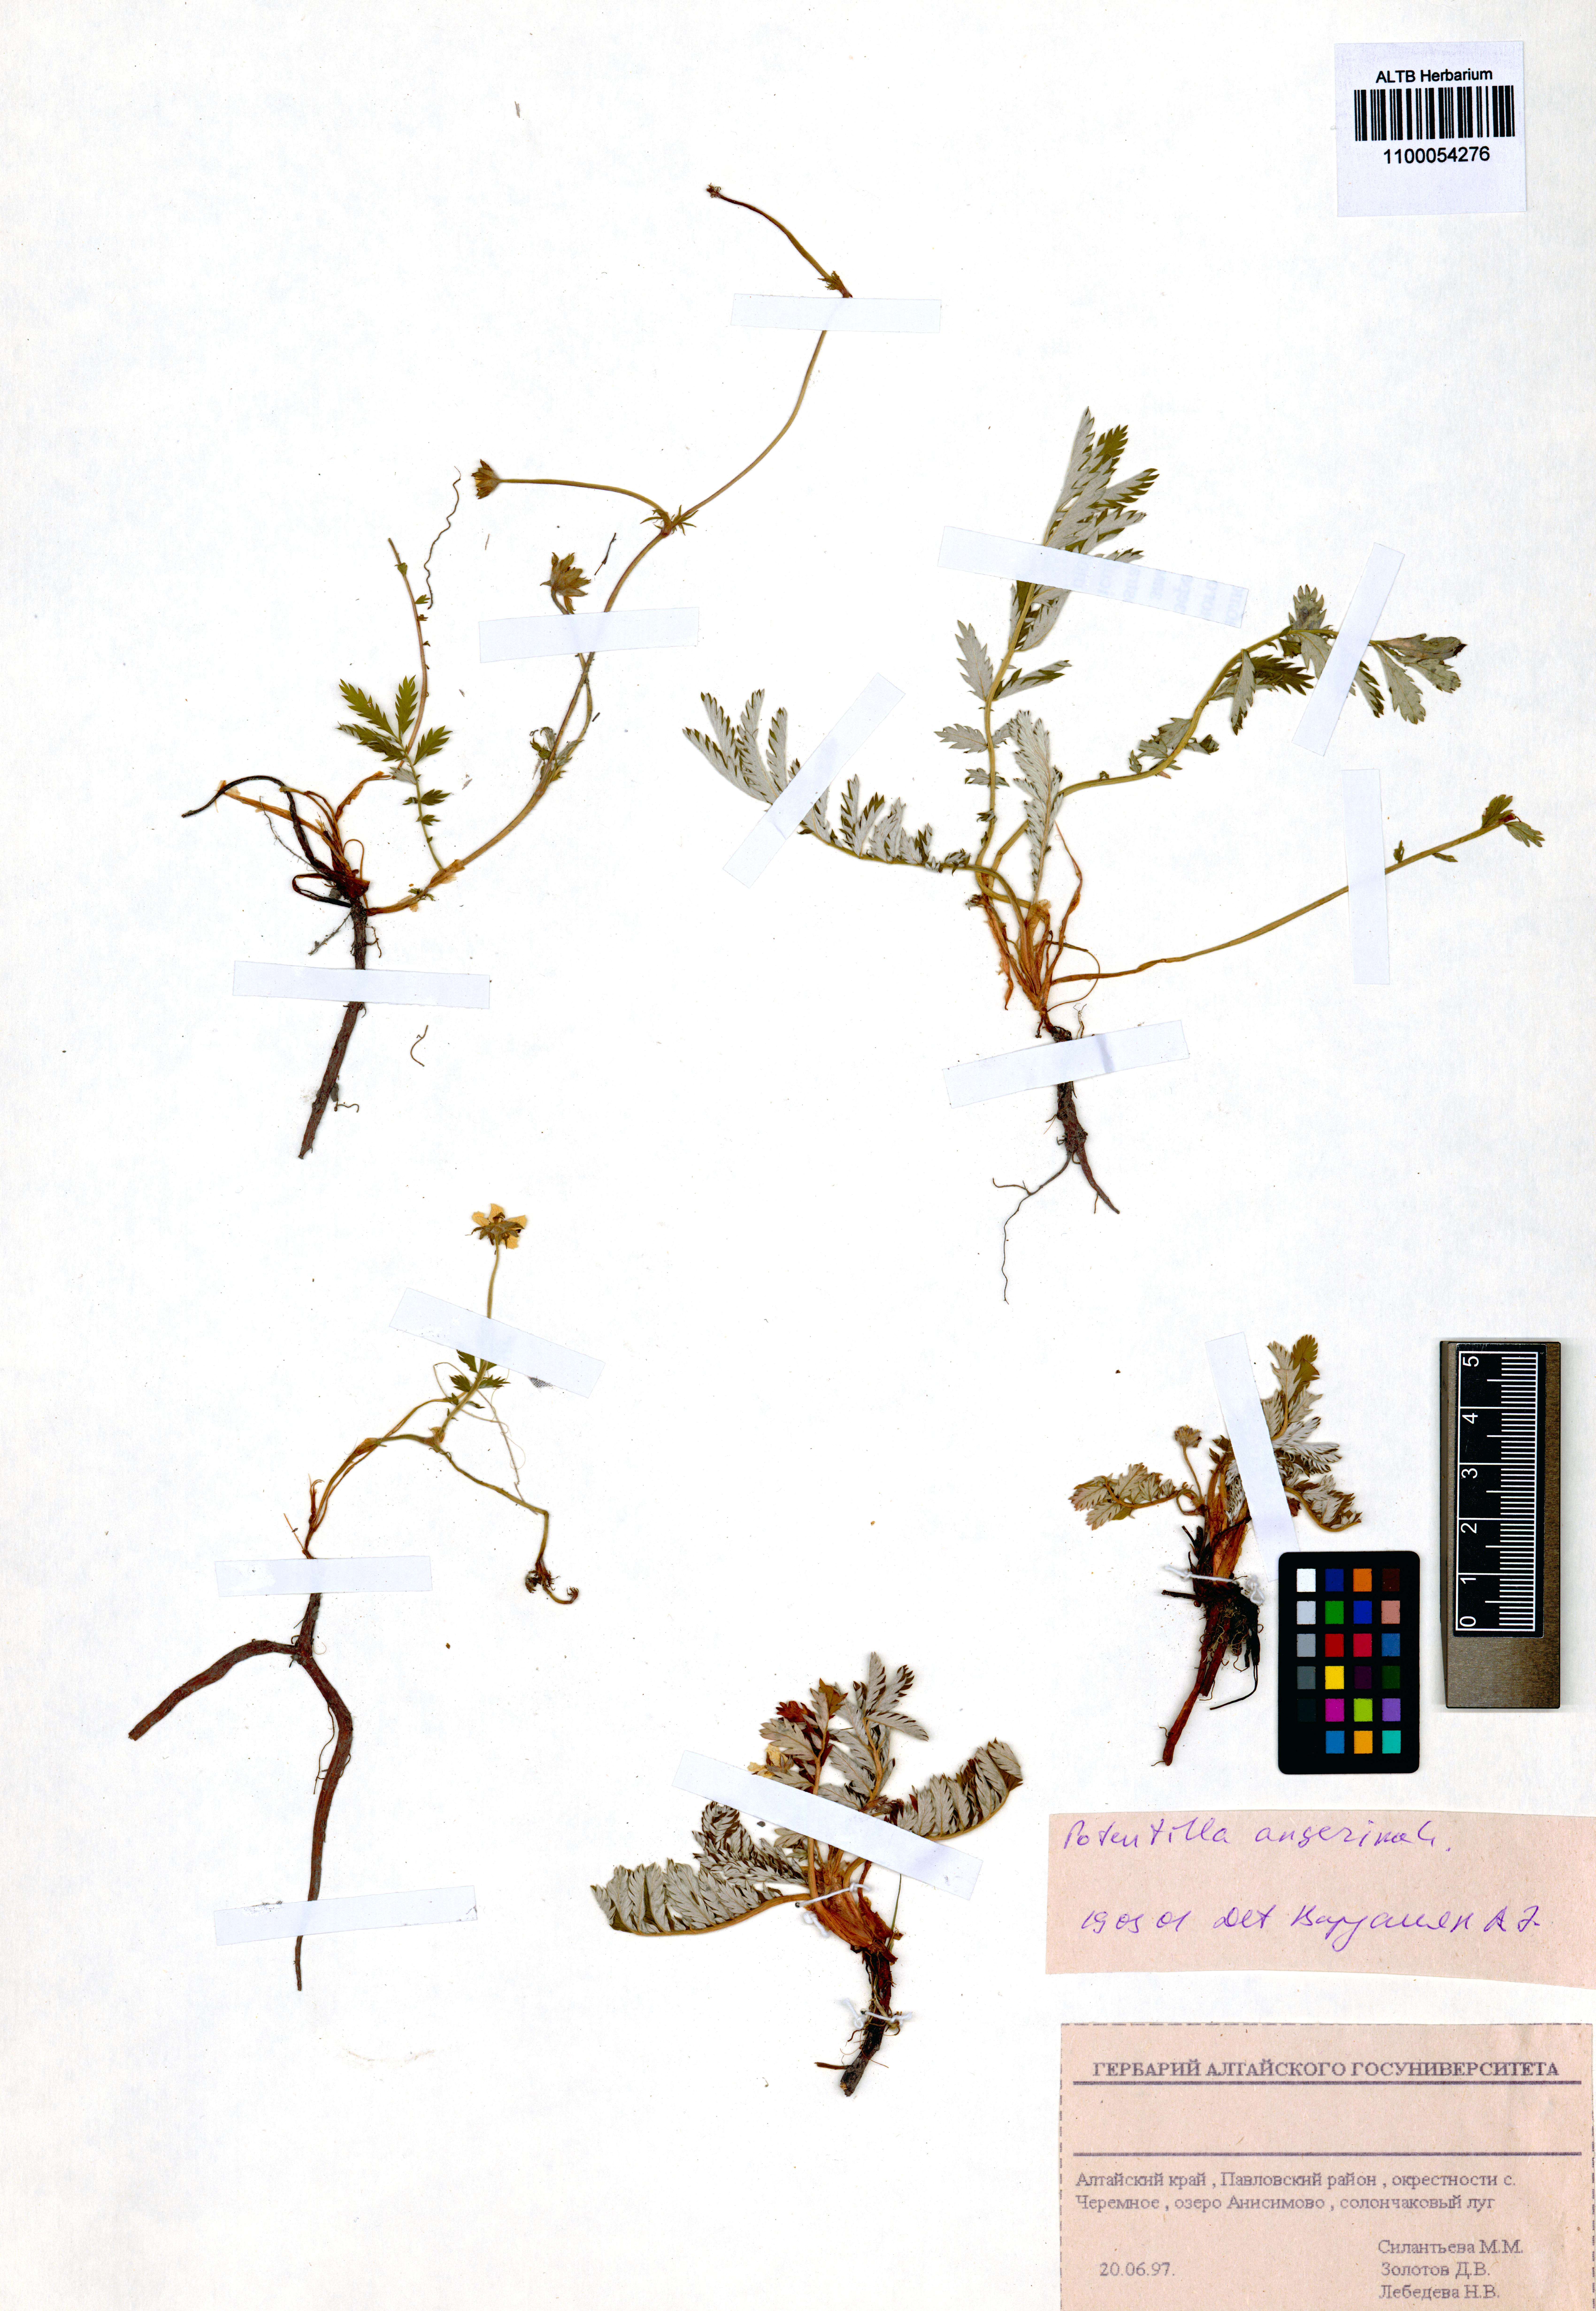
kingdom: Plantae
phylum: Tracheophyta
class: Magnoliopsida
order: Rosales
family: Rosaceae
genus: Argentina
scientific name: Argentina anserina
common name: Common silverweed
